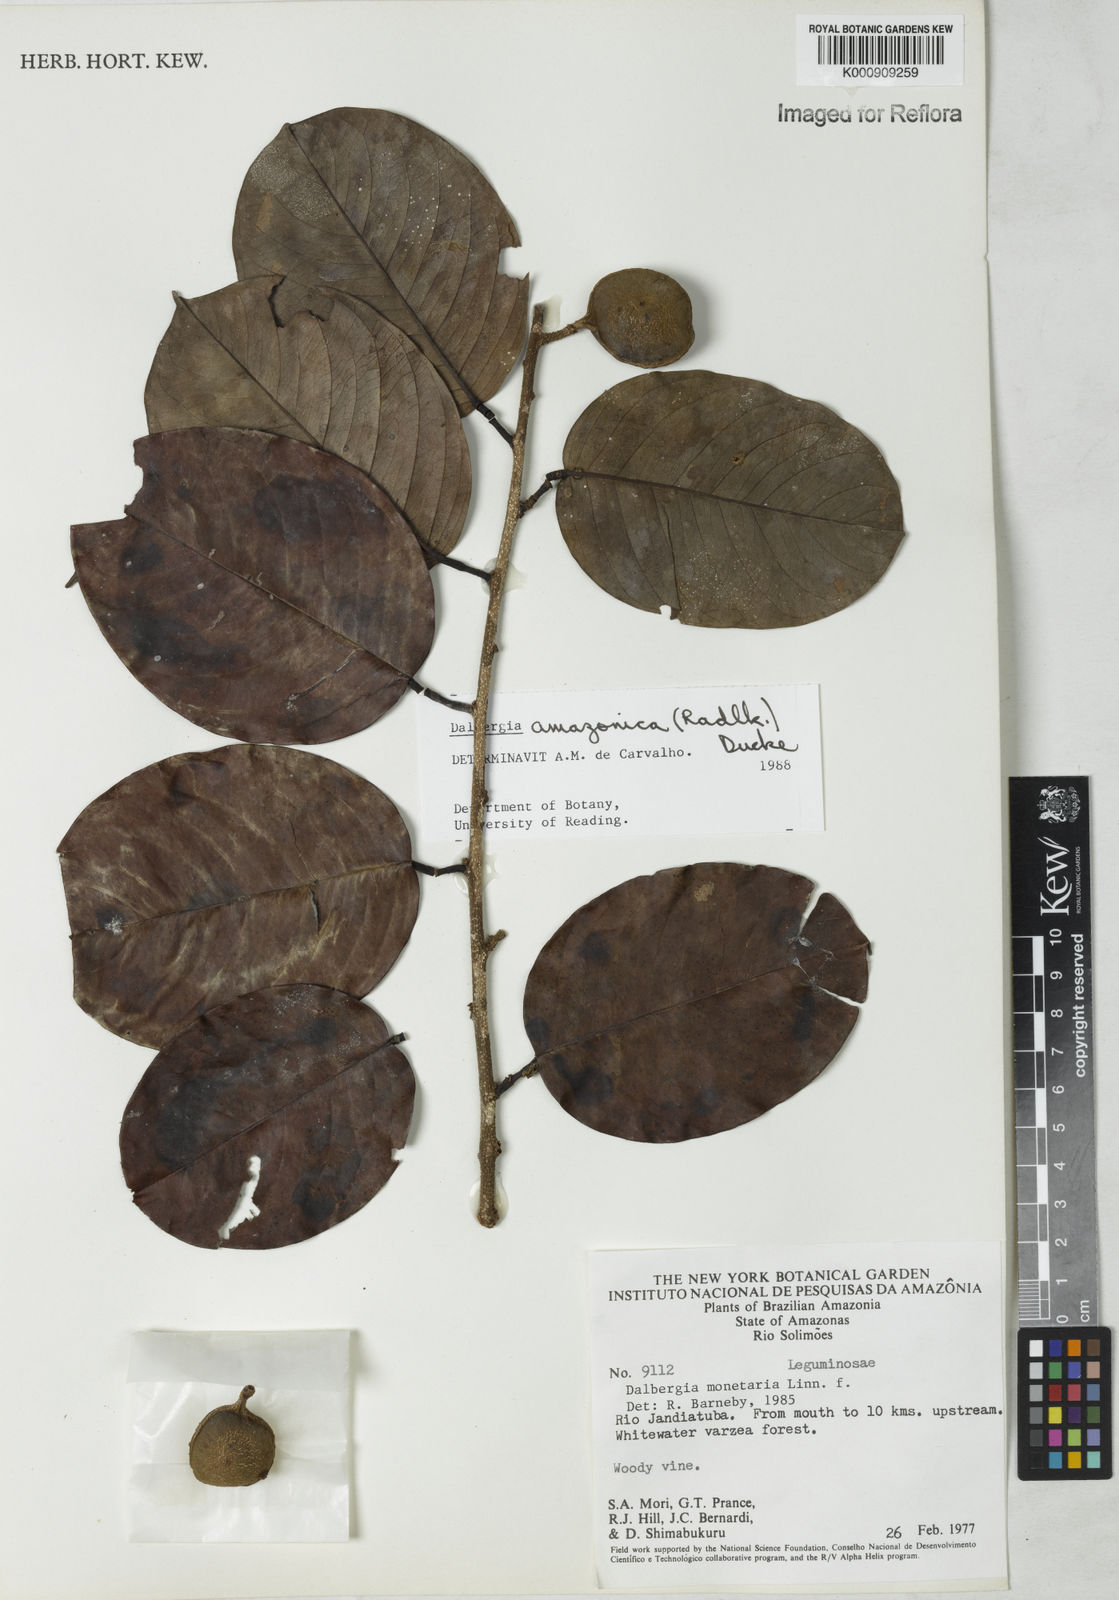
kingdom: Plantae
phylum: Tracheophyta
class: Magnoliopsida
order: Fabales
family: Fabaceae
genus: Dalbergia
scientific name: Dalbergia
